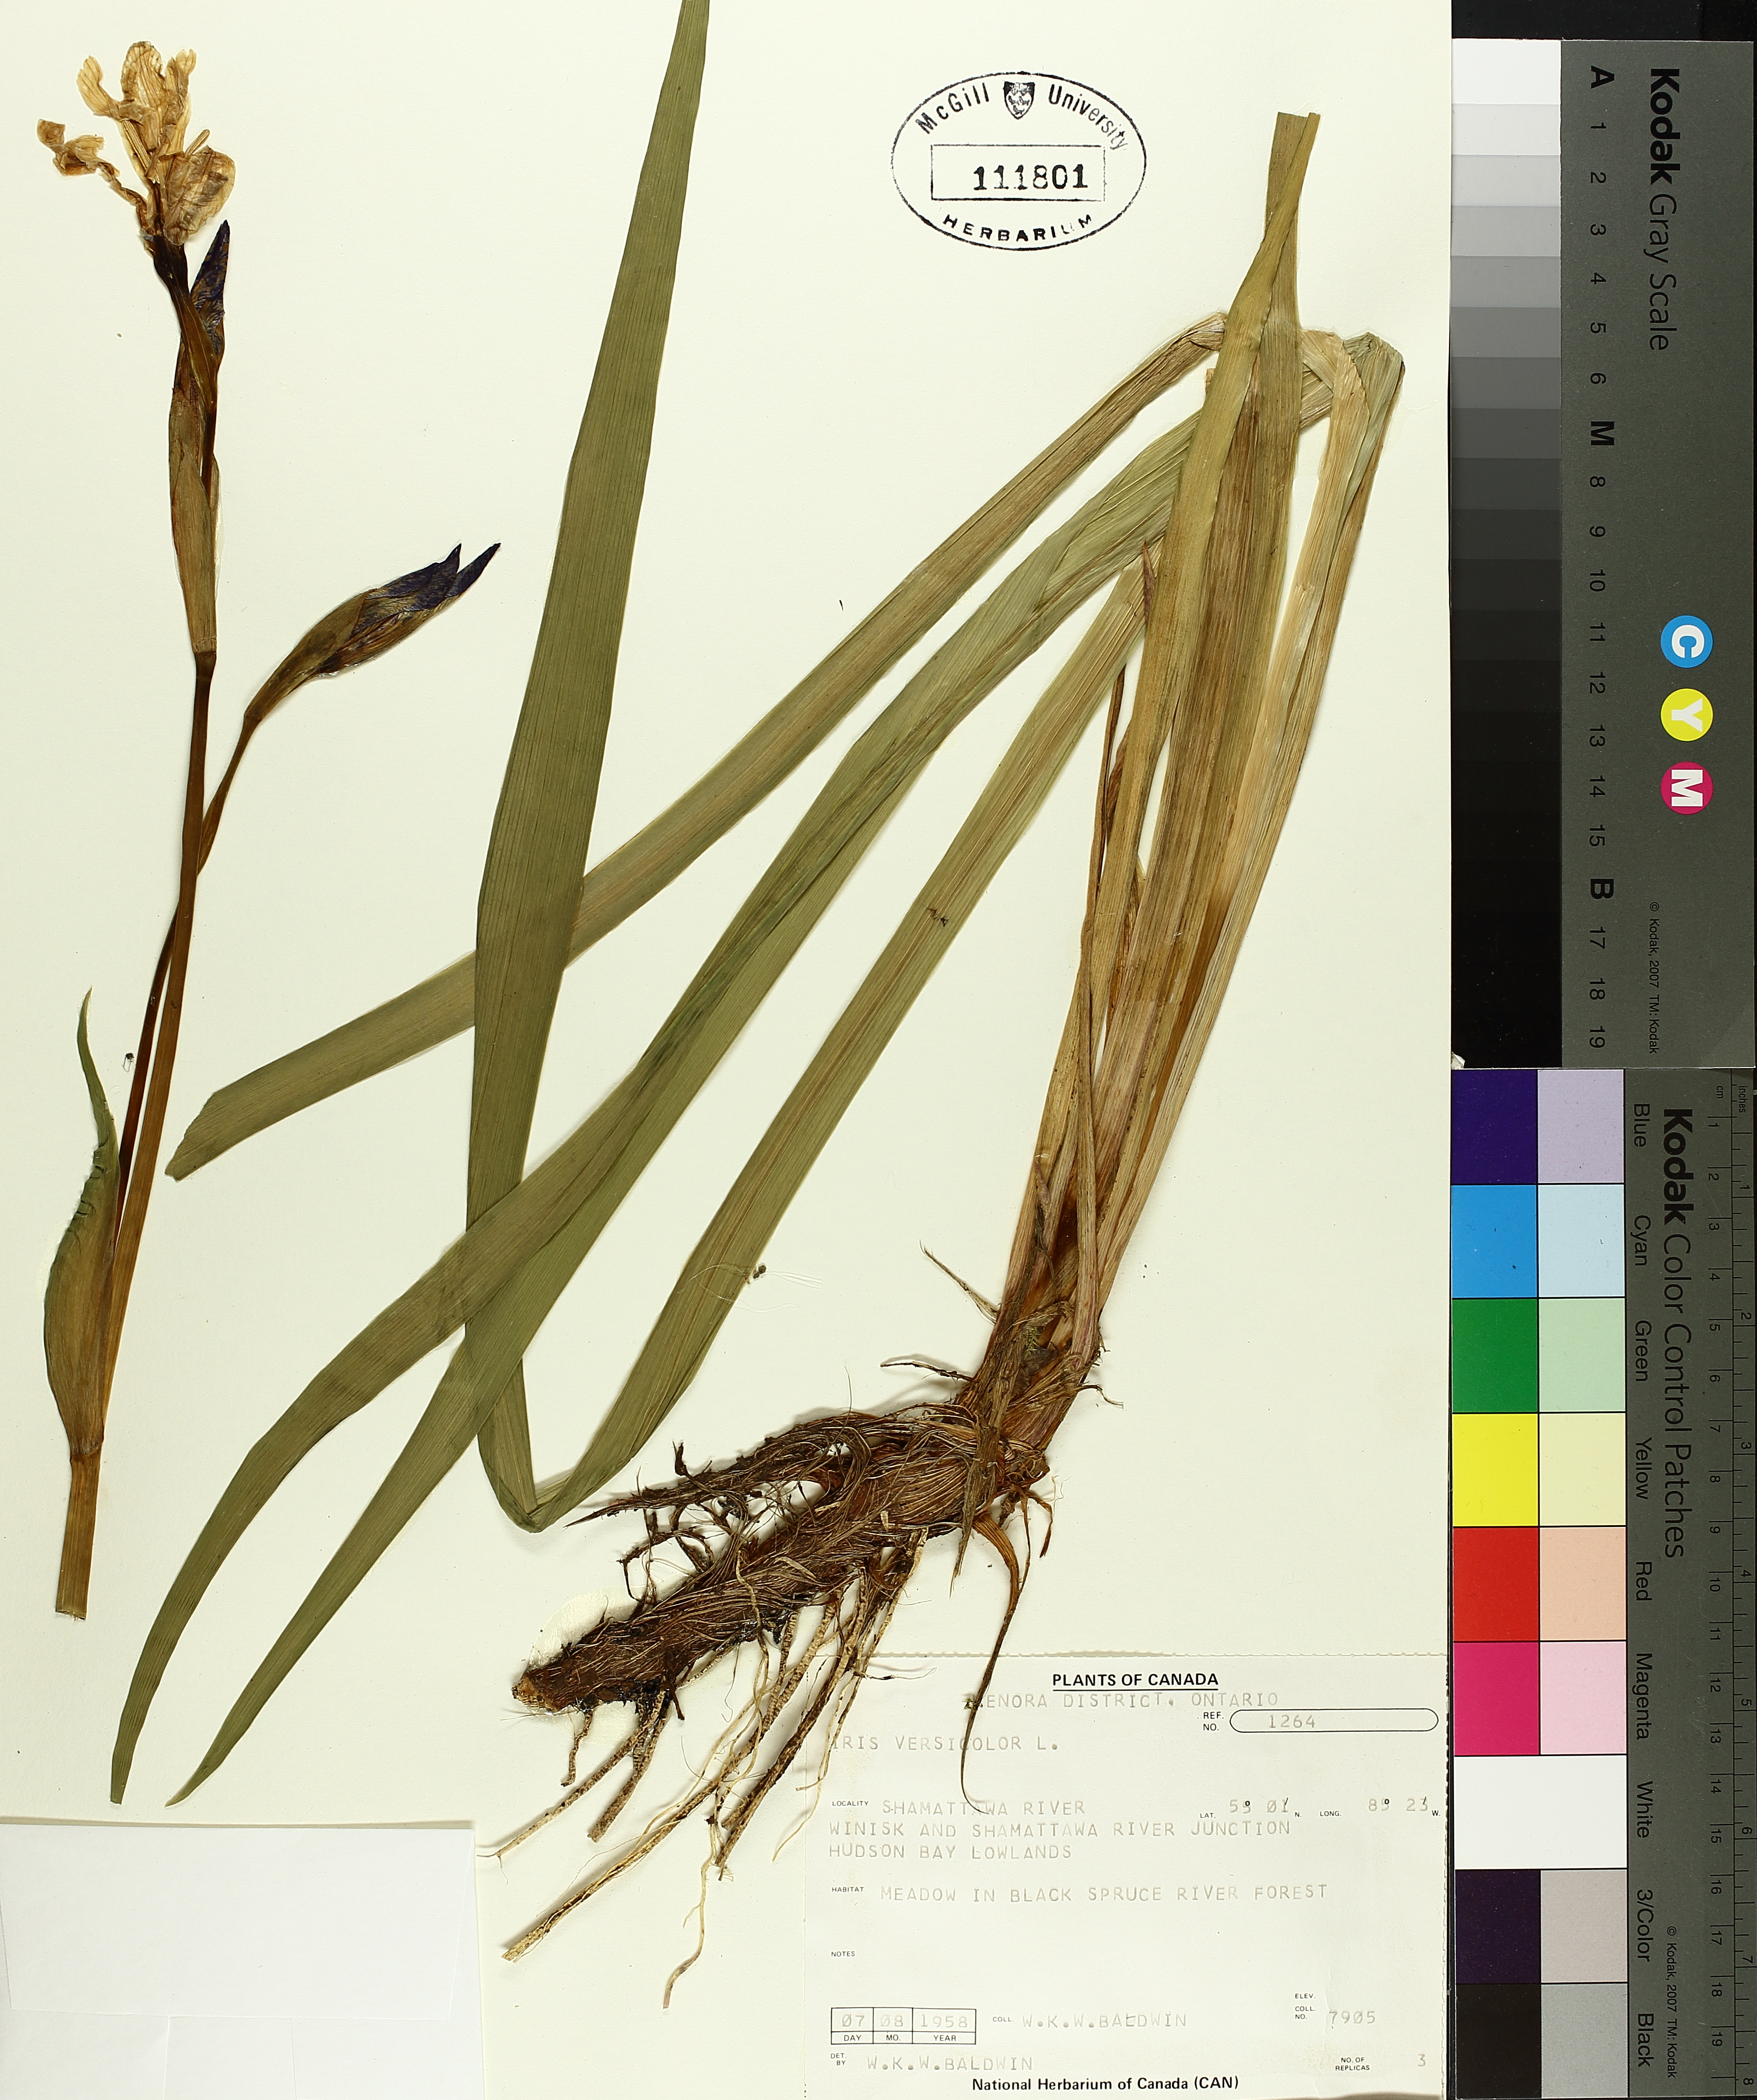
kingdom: Plantae
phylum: Tracheophyta
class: Liliopsida
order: Asparagales
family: Iridaceae
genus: Iris
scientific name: Iris versicolor
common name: Purple iris
